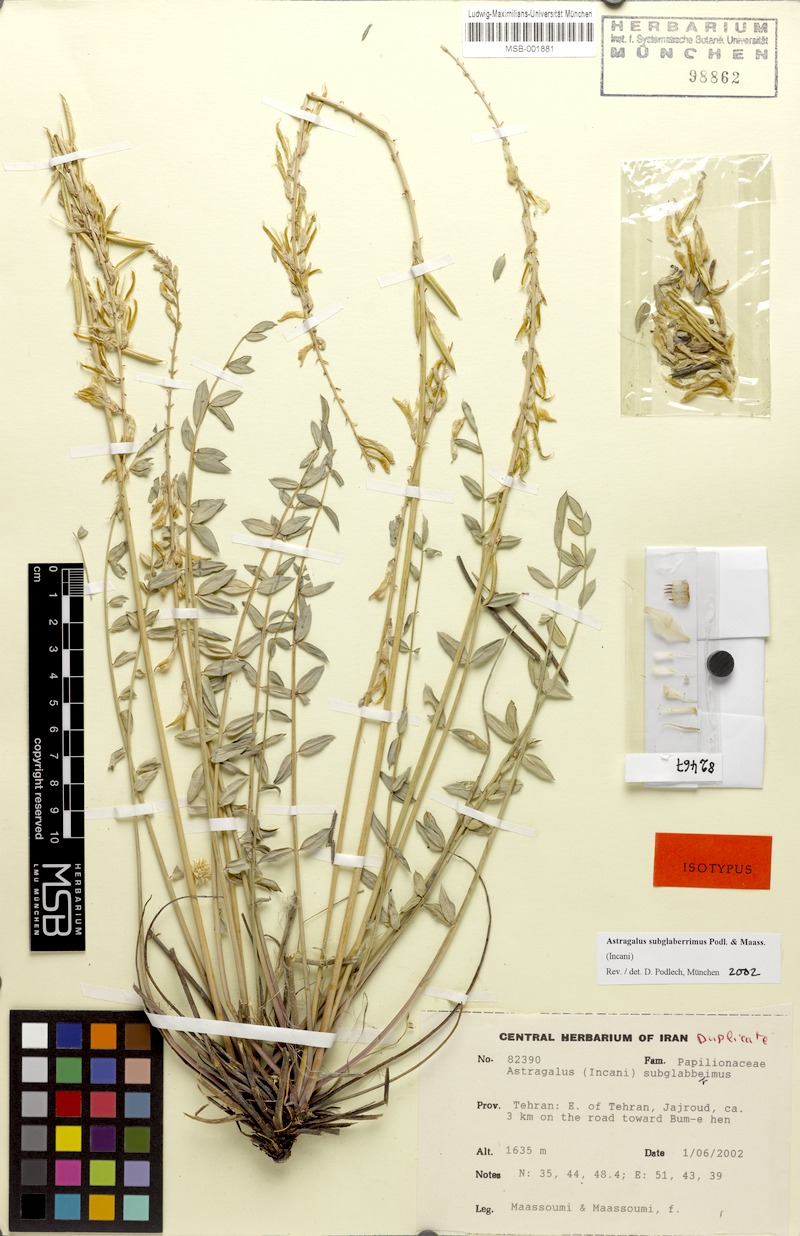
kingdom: Plantae
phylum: Tracheophyta
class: Magnoliopsida
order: Fabales
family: Fabaceae
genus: Astragalus
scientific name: Astragalus subglaberrimus
